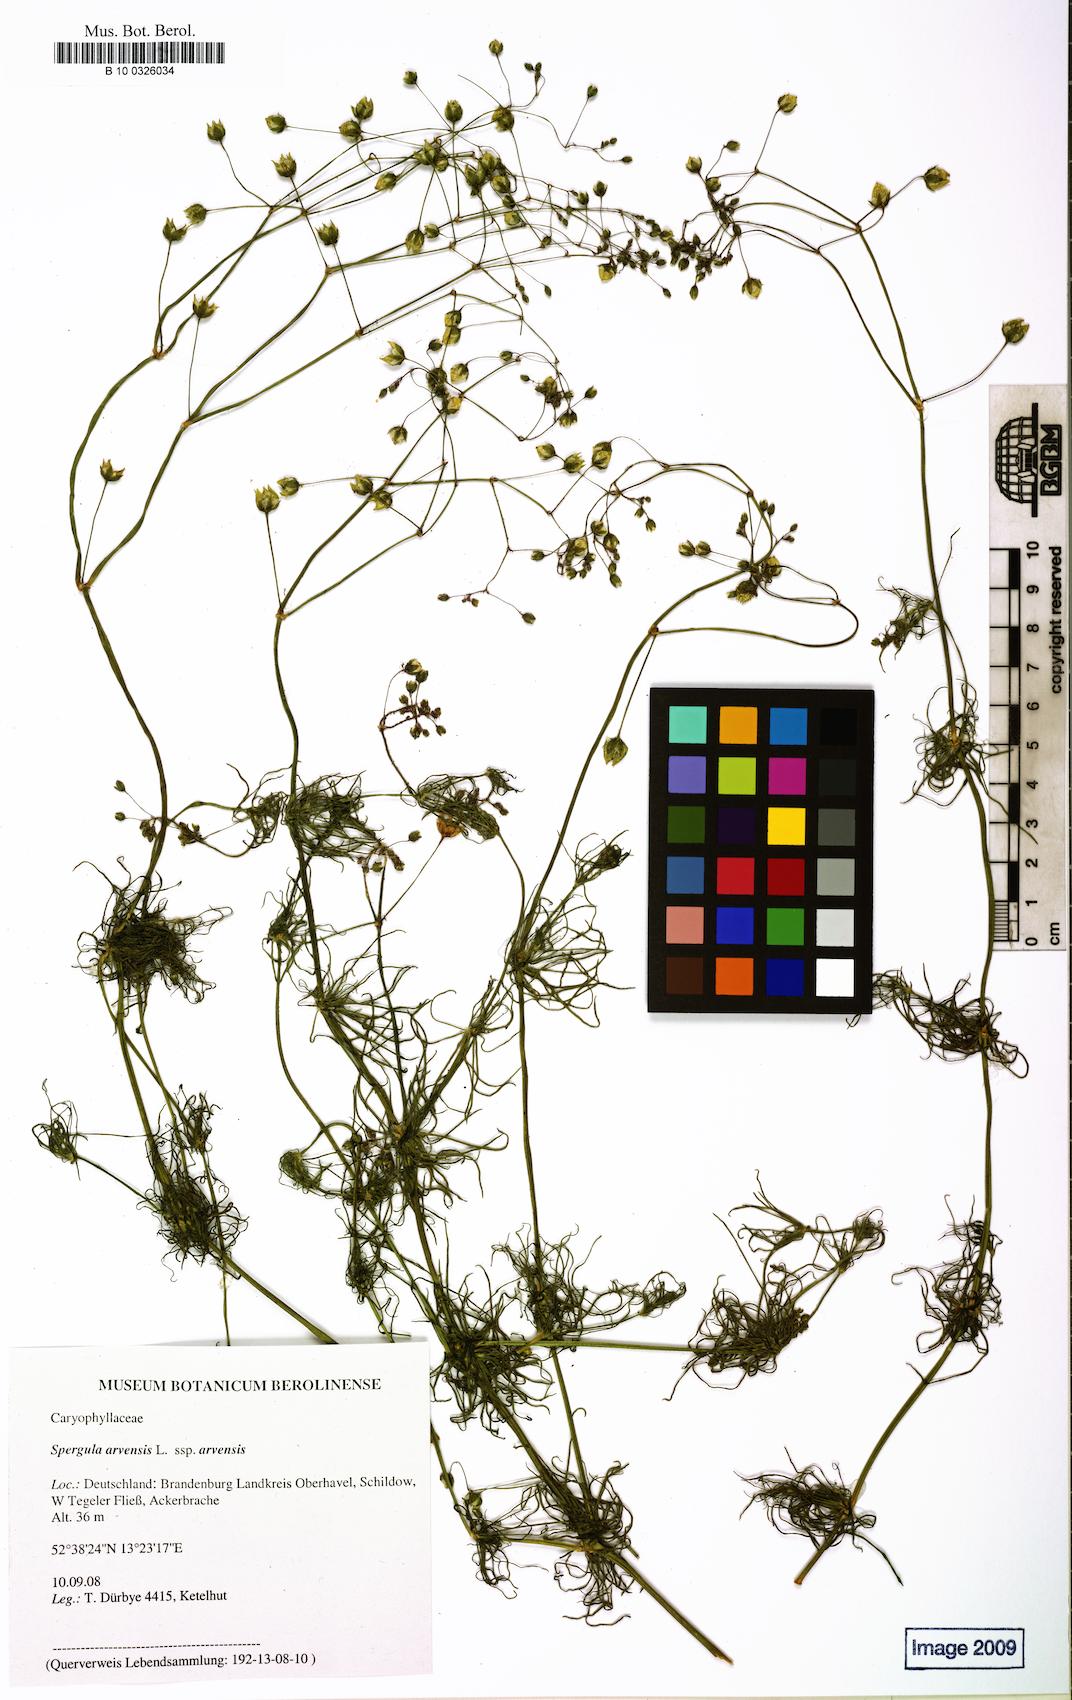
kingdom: Plantae
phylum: Tracheophyta
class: Magnoliopsida
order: Caryophyllales
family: Caryophyllaceae
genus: Spergula
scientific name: Spergula arvensis
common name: Corn spurrey
